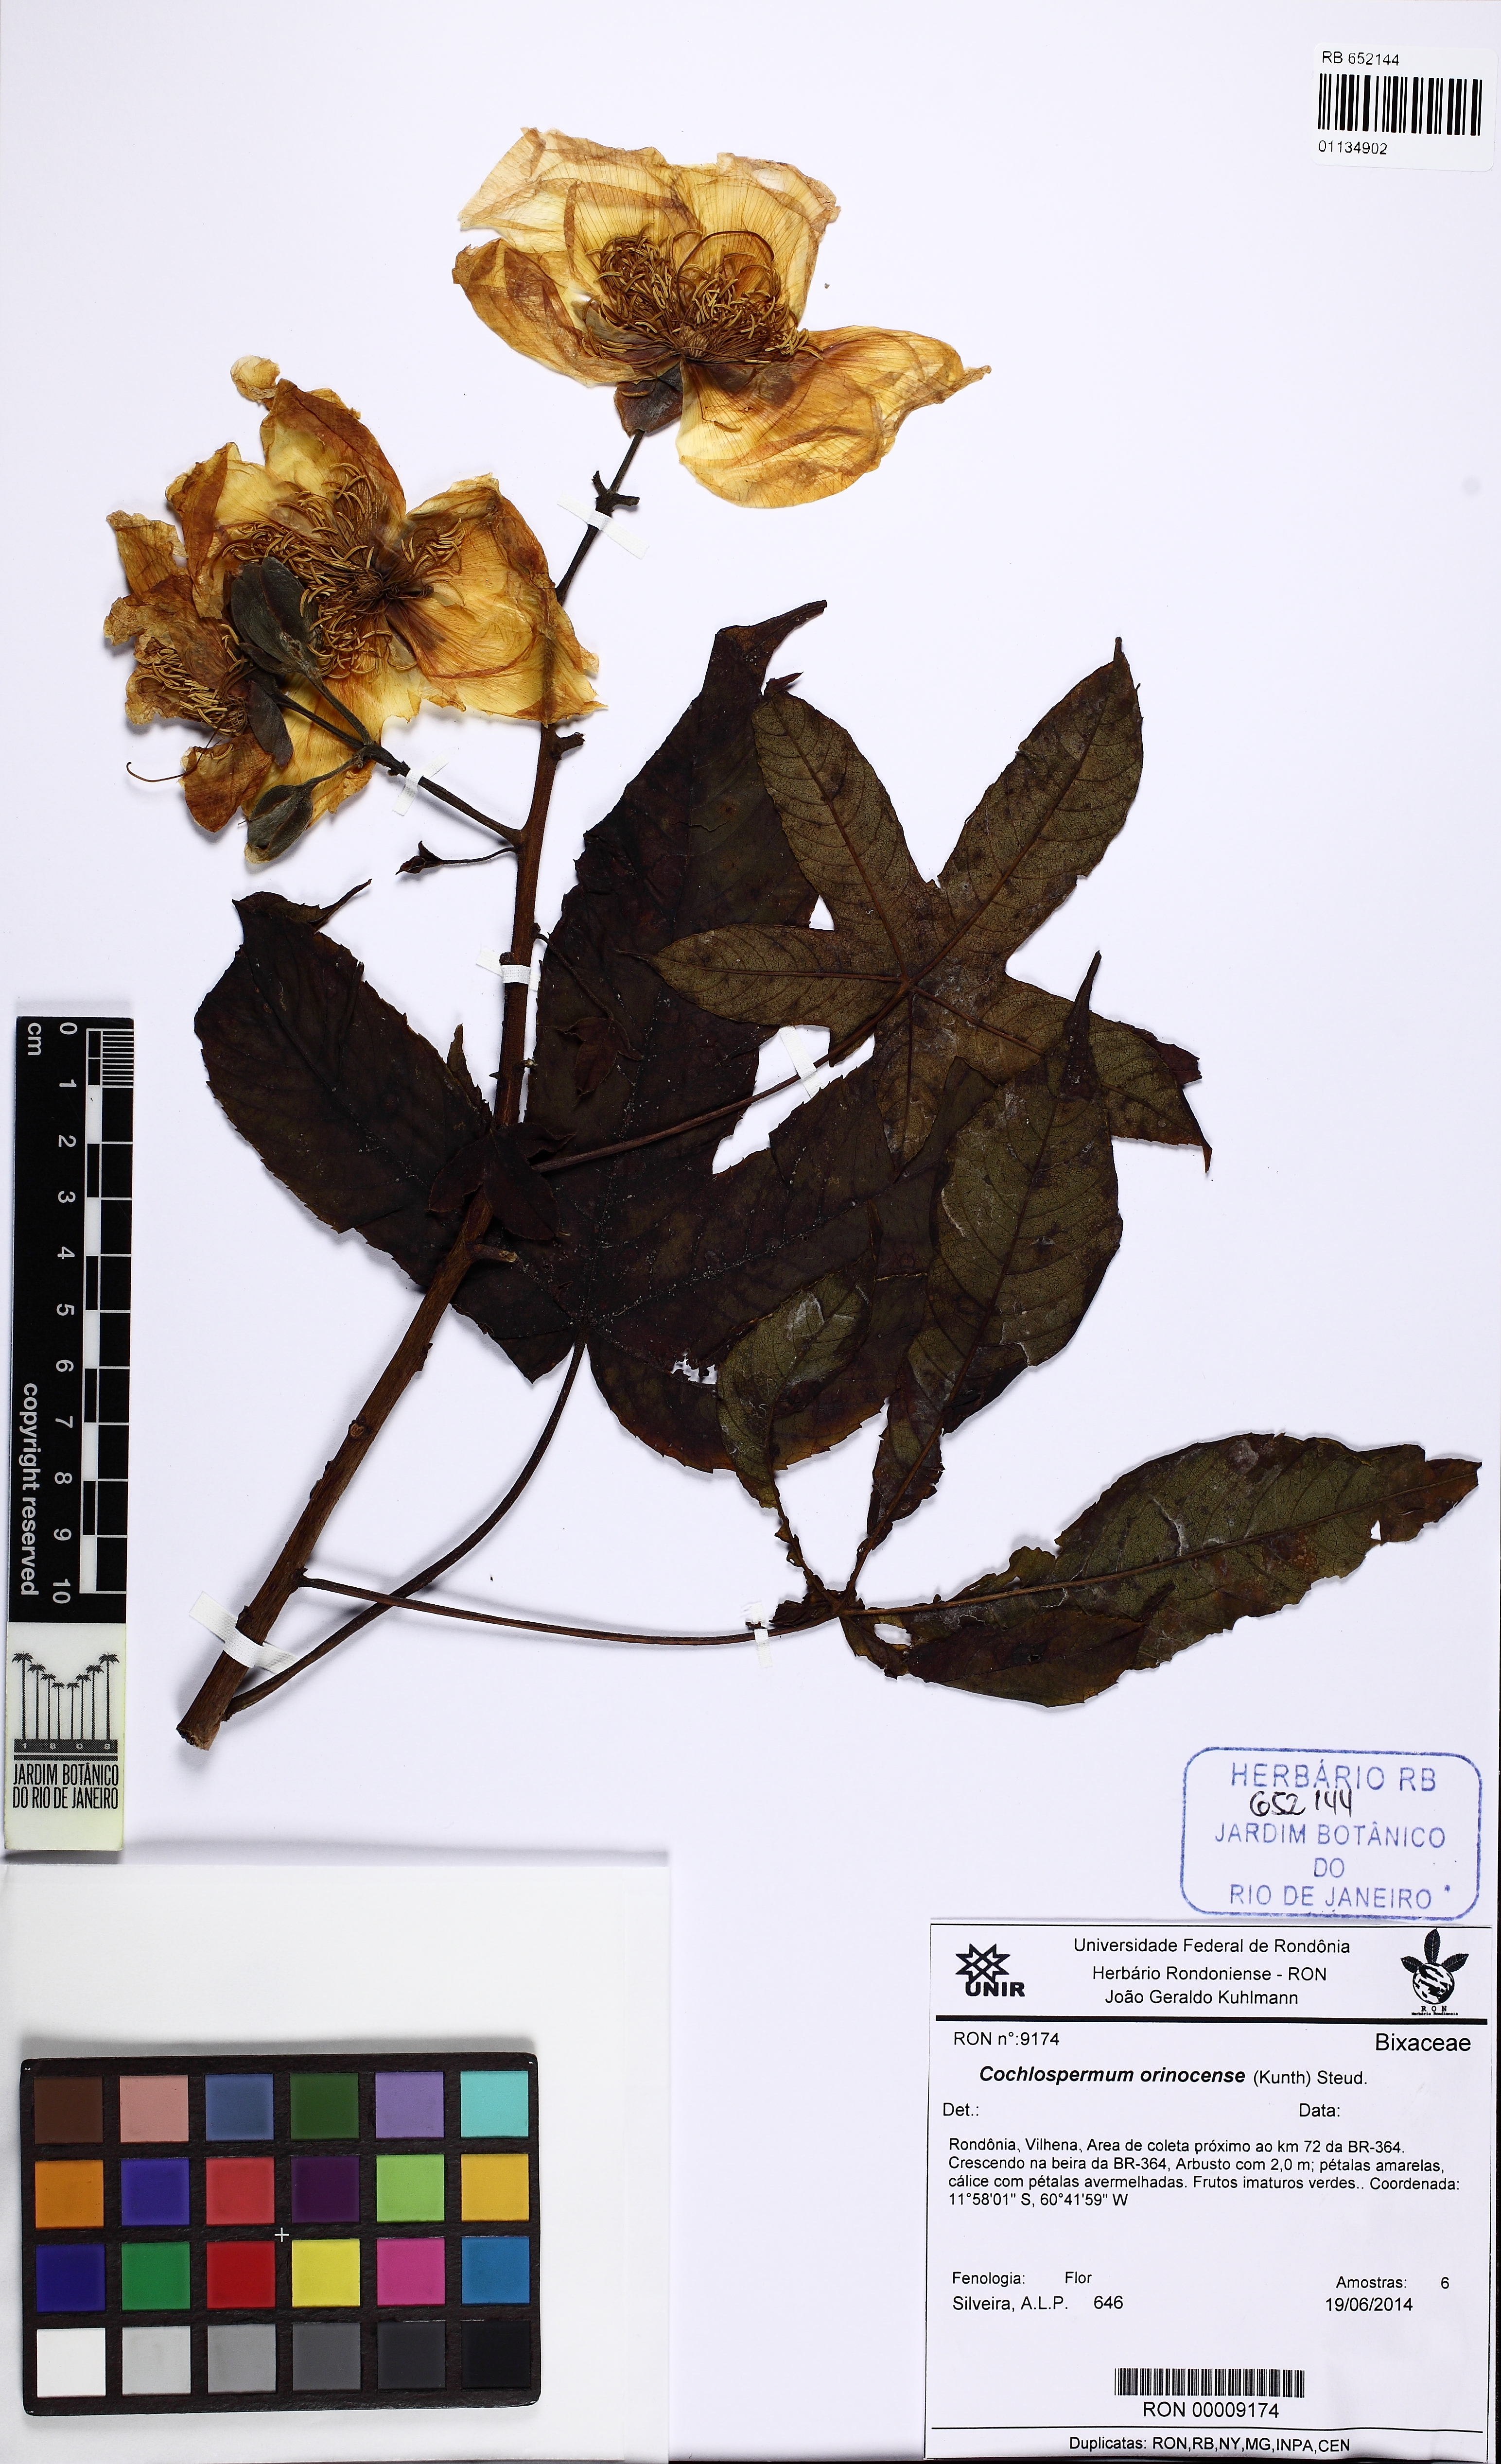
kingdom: Plantae
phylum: Tracheophyta
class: Magnoliopsida
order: Malvales
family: Cochlospermaceae
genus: Cochlospermum
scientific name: Cochlospermum orinocense
